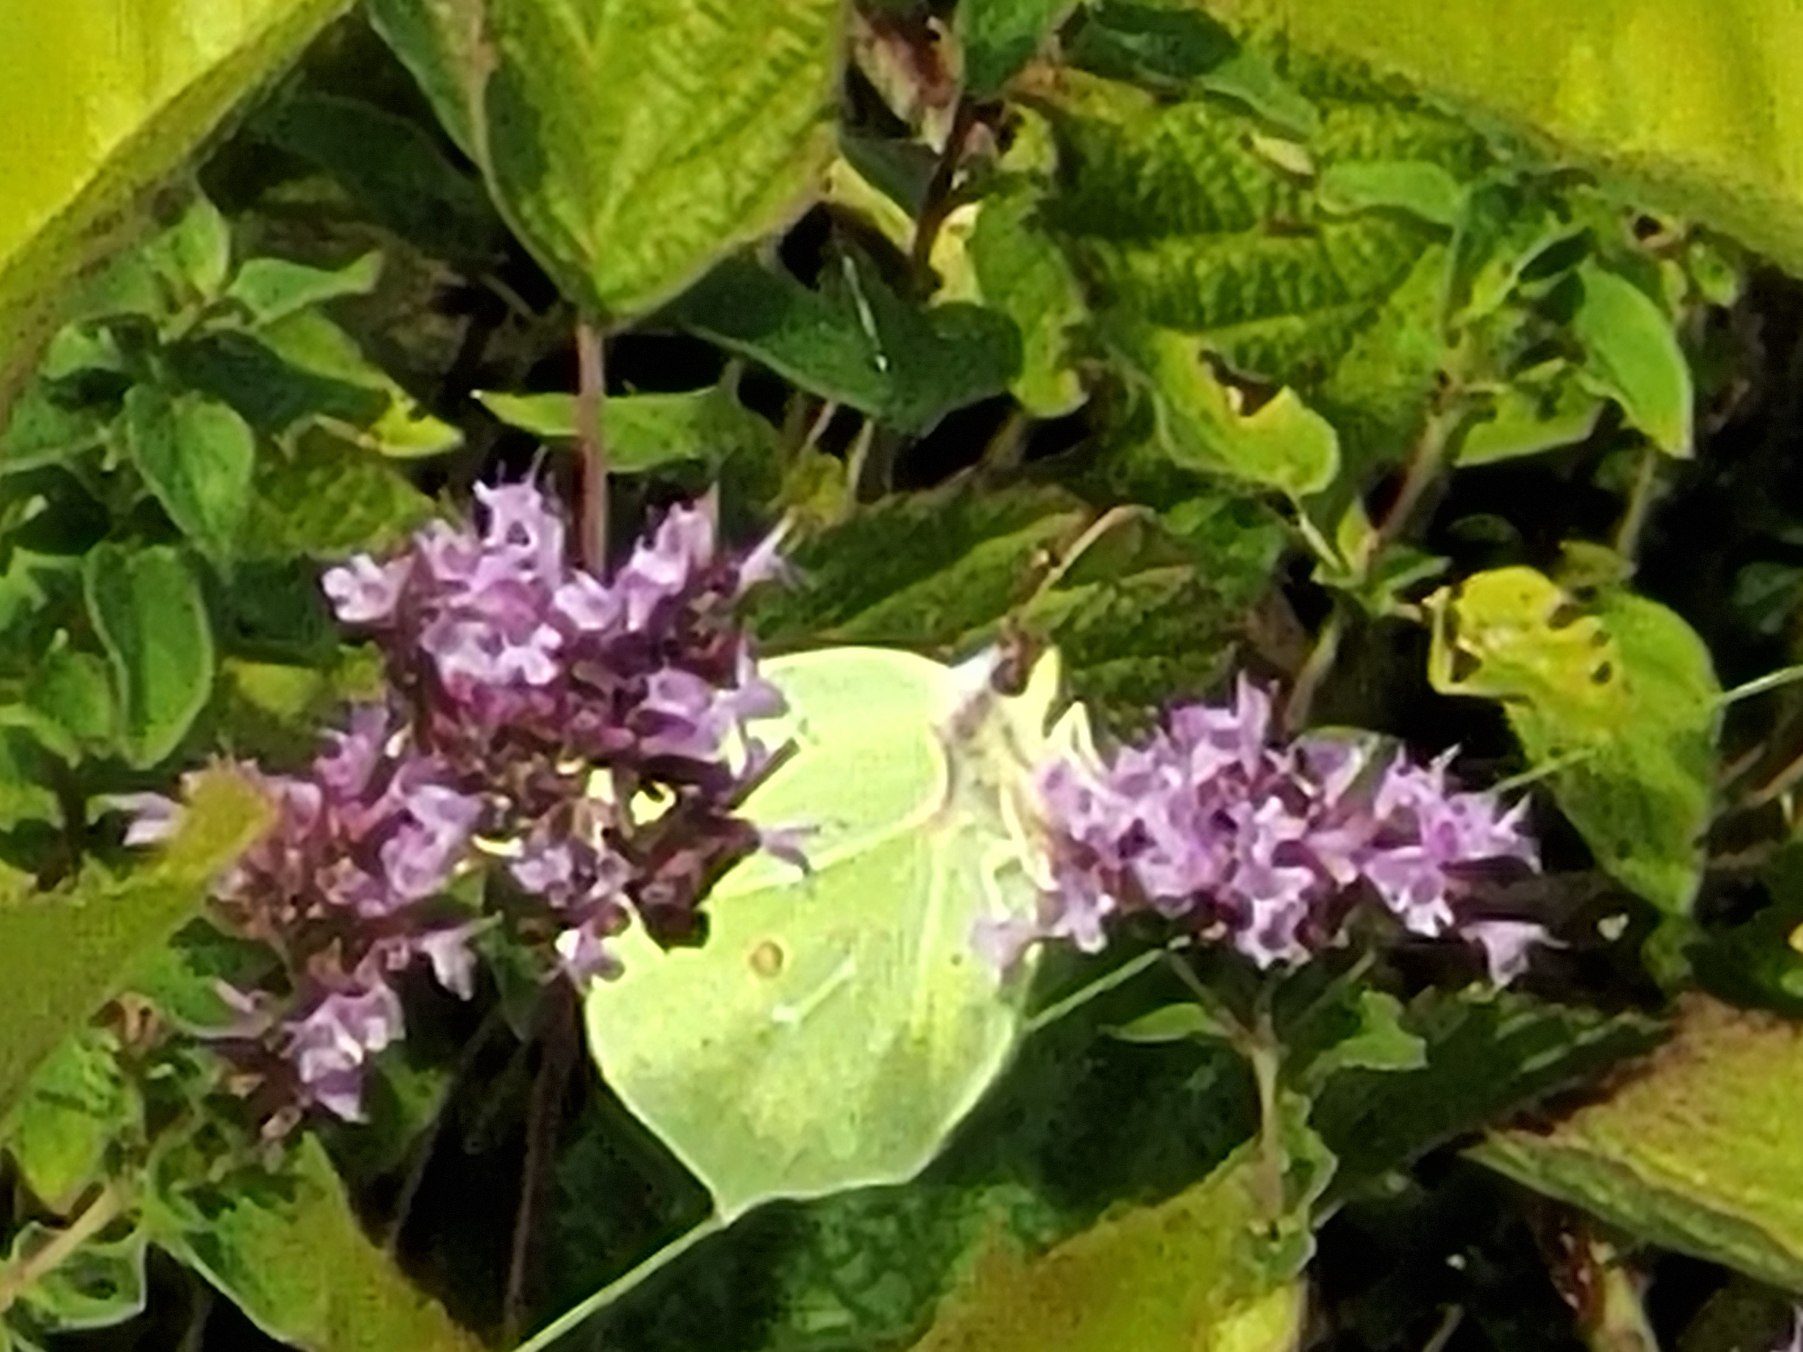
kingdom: Animalia
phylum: Arthropoda
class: Insecta
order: Lepidoptera
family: Pieridae
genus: Gonepteryx
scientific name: Gonepteryx rhamni
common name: Citronsommerfugl
